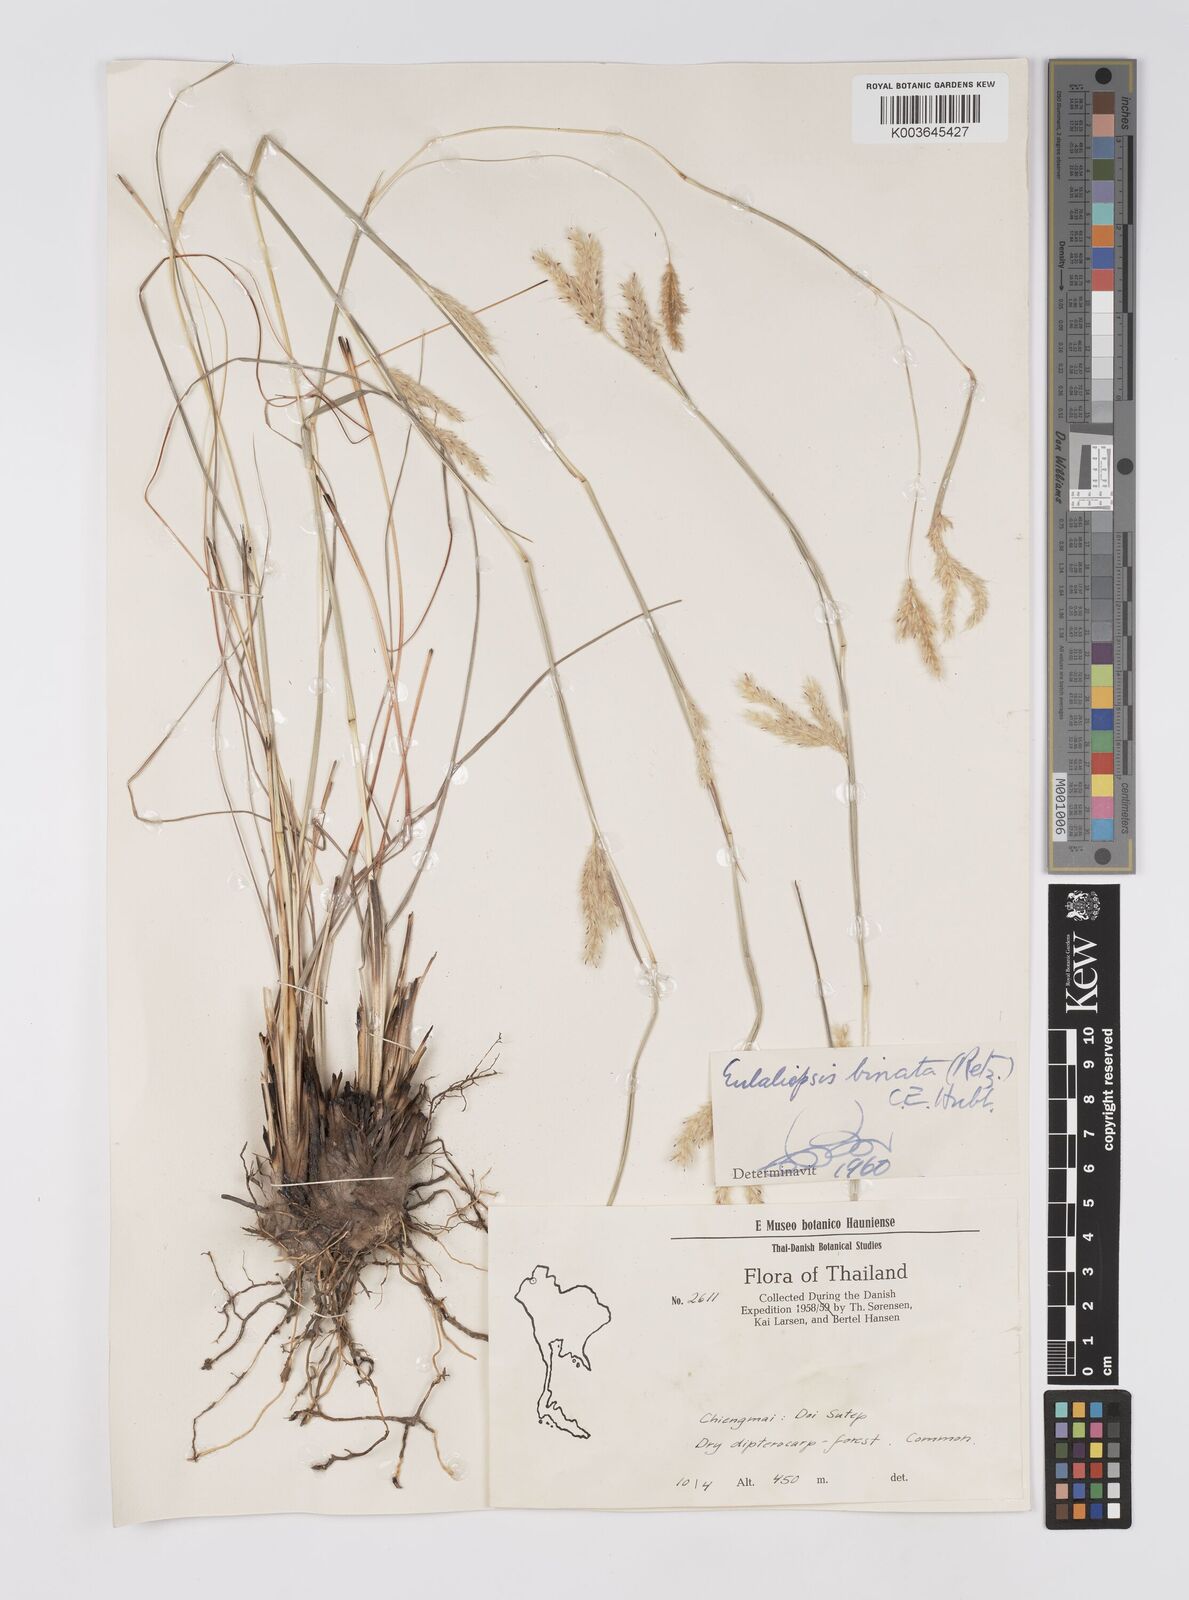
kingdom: Plantae
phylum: Tracheophyta
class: Liliopsida
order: Poales
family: Poaceae
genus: Eulaliopsis
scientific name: Eulaliopsis binata
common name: Baib grass
